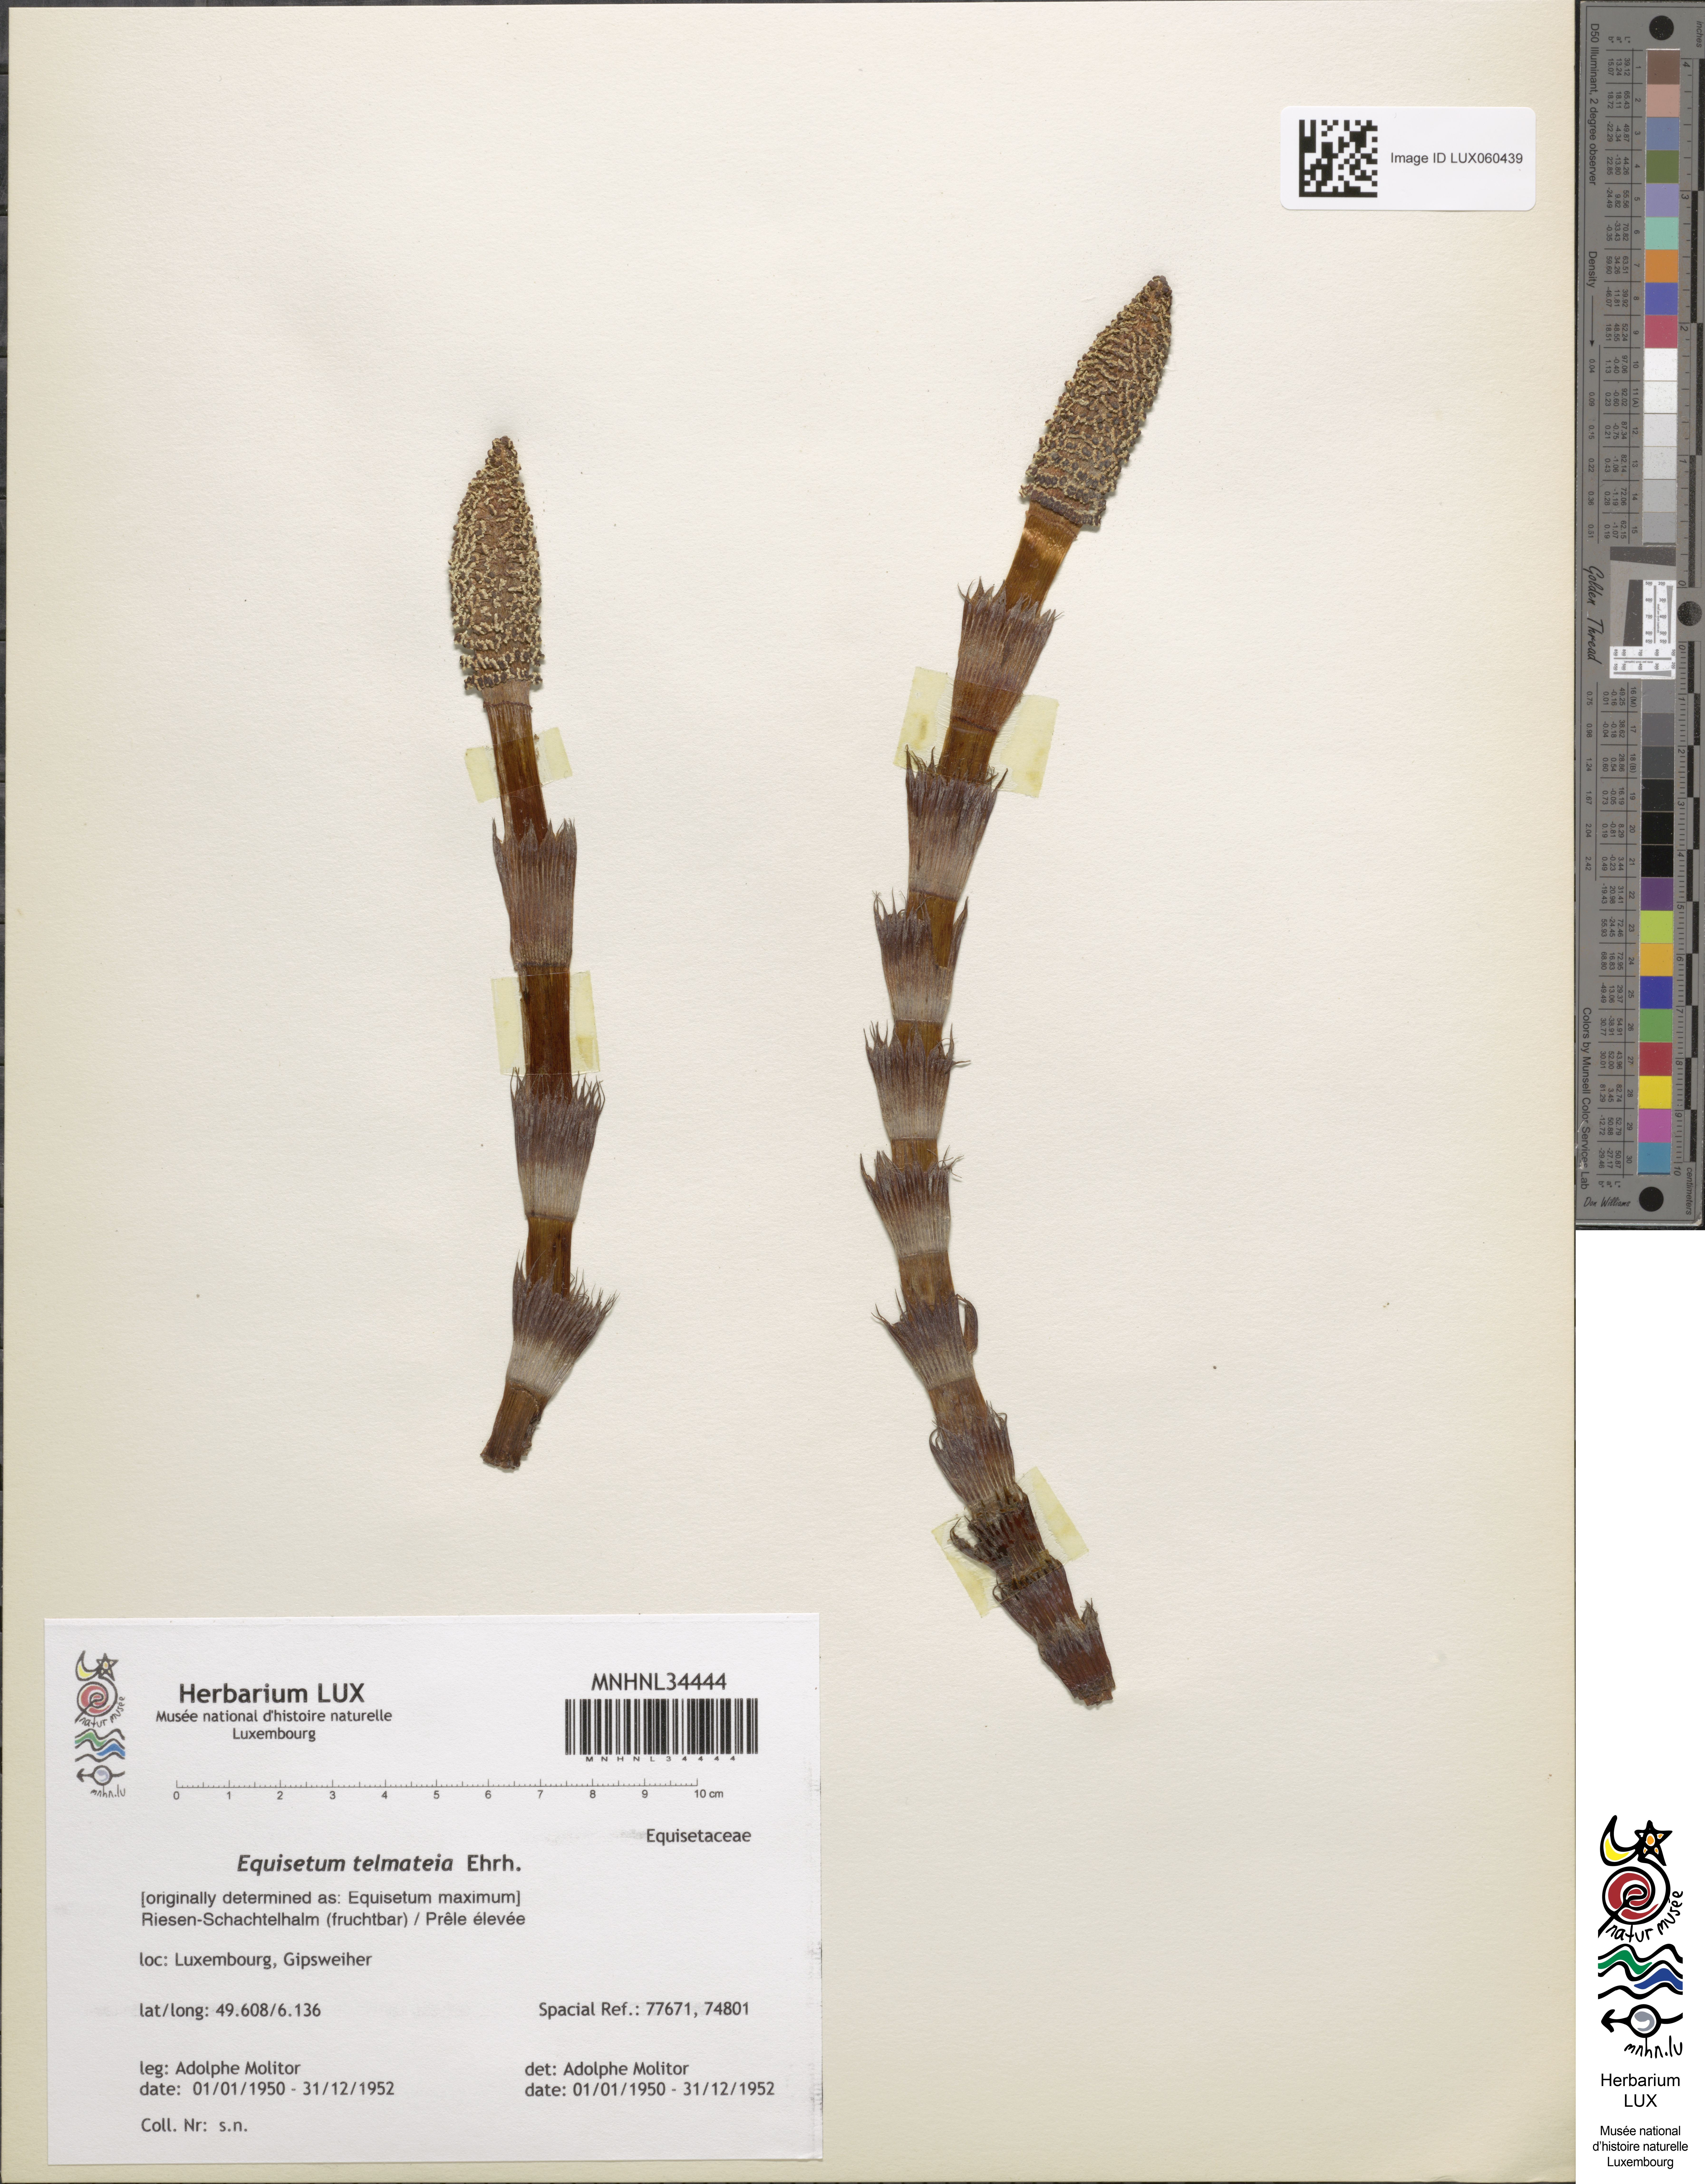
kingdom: Plantae
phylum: Tracheophyta
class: Polypodiopsida
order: Equisetales
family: Equisetaceae
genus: Equisetum
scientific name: Equisetum telmateia
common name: Great horsetail
